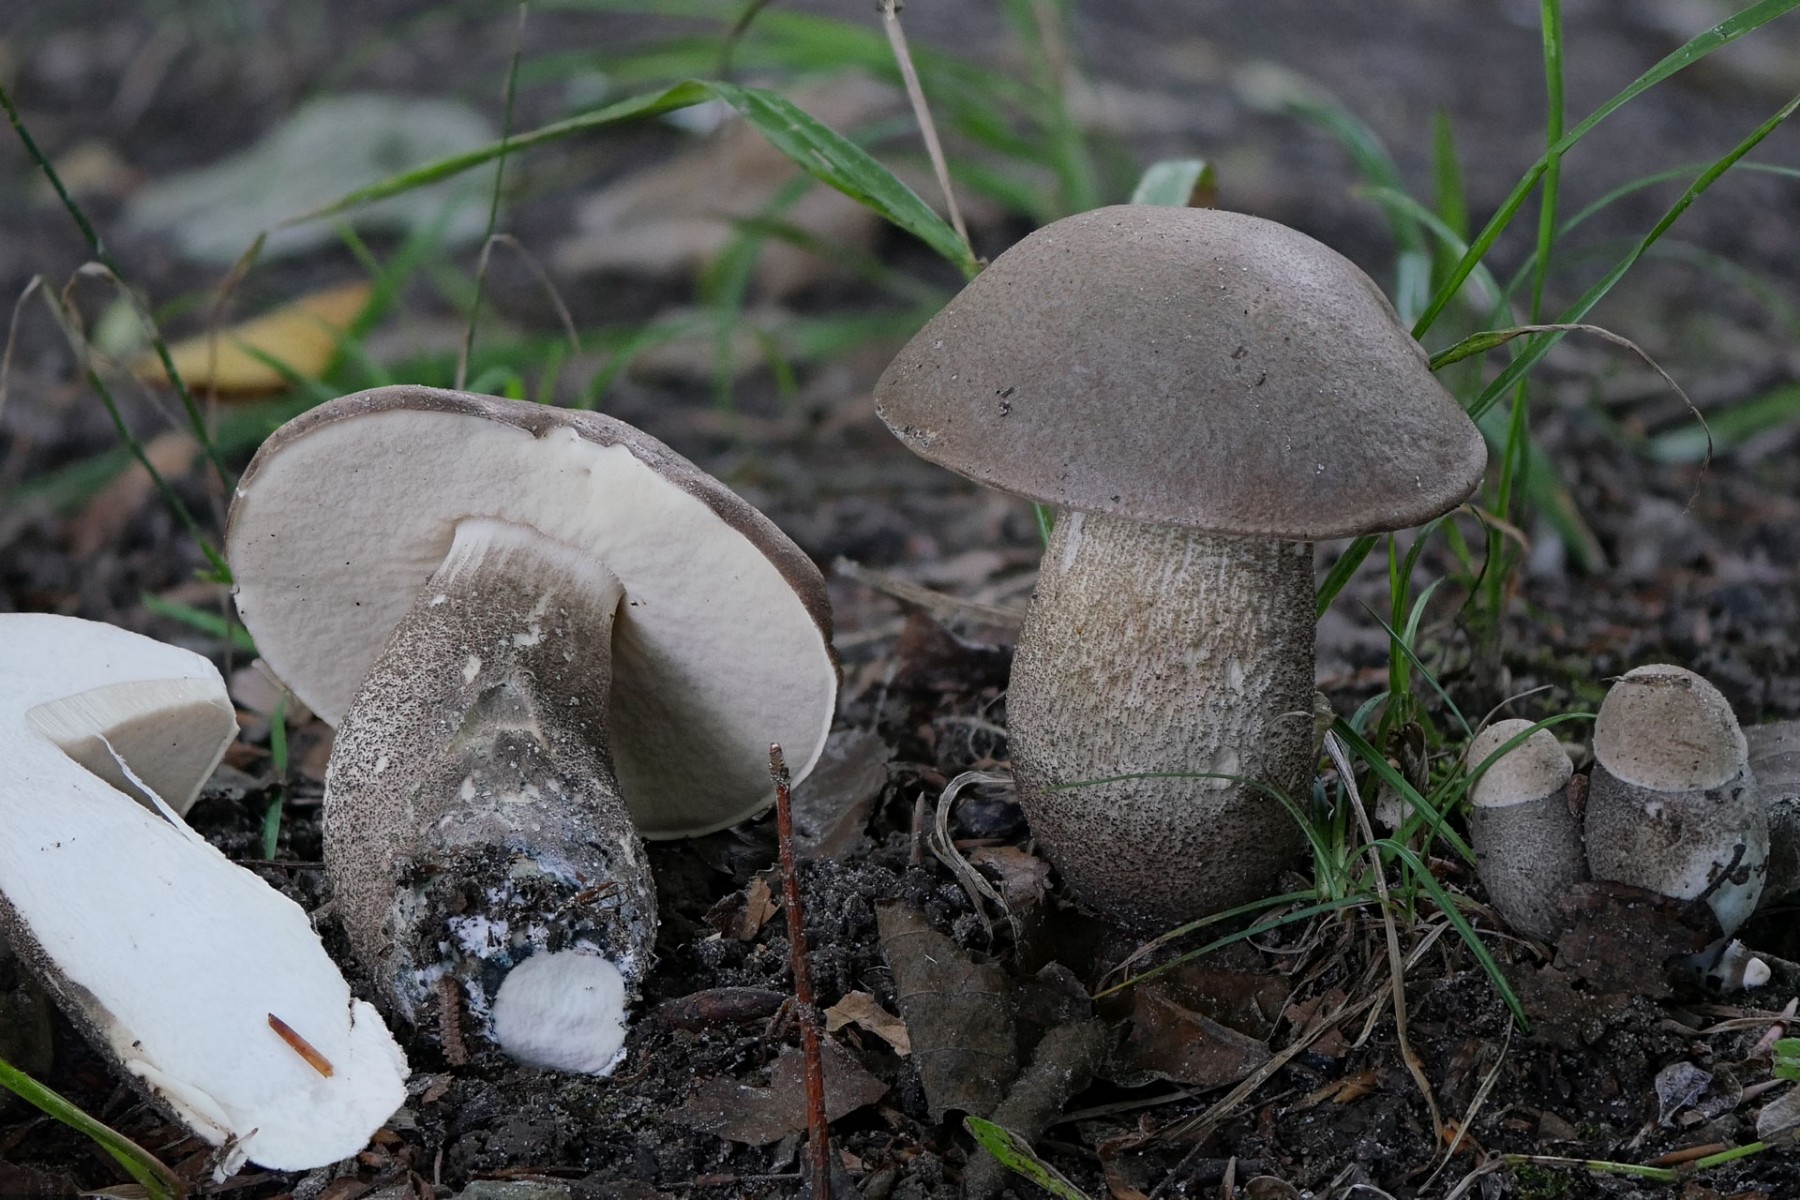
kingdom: Fungi
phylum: Basidiomycota
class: Agaricomycetes
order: Boletales
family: Boletaceae
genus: Leccinum
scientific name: Leccinum duriusculum
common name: poppel-skælrørhat
